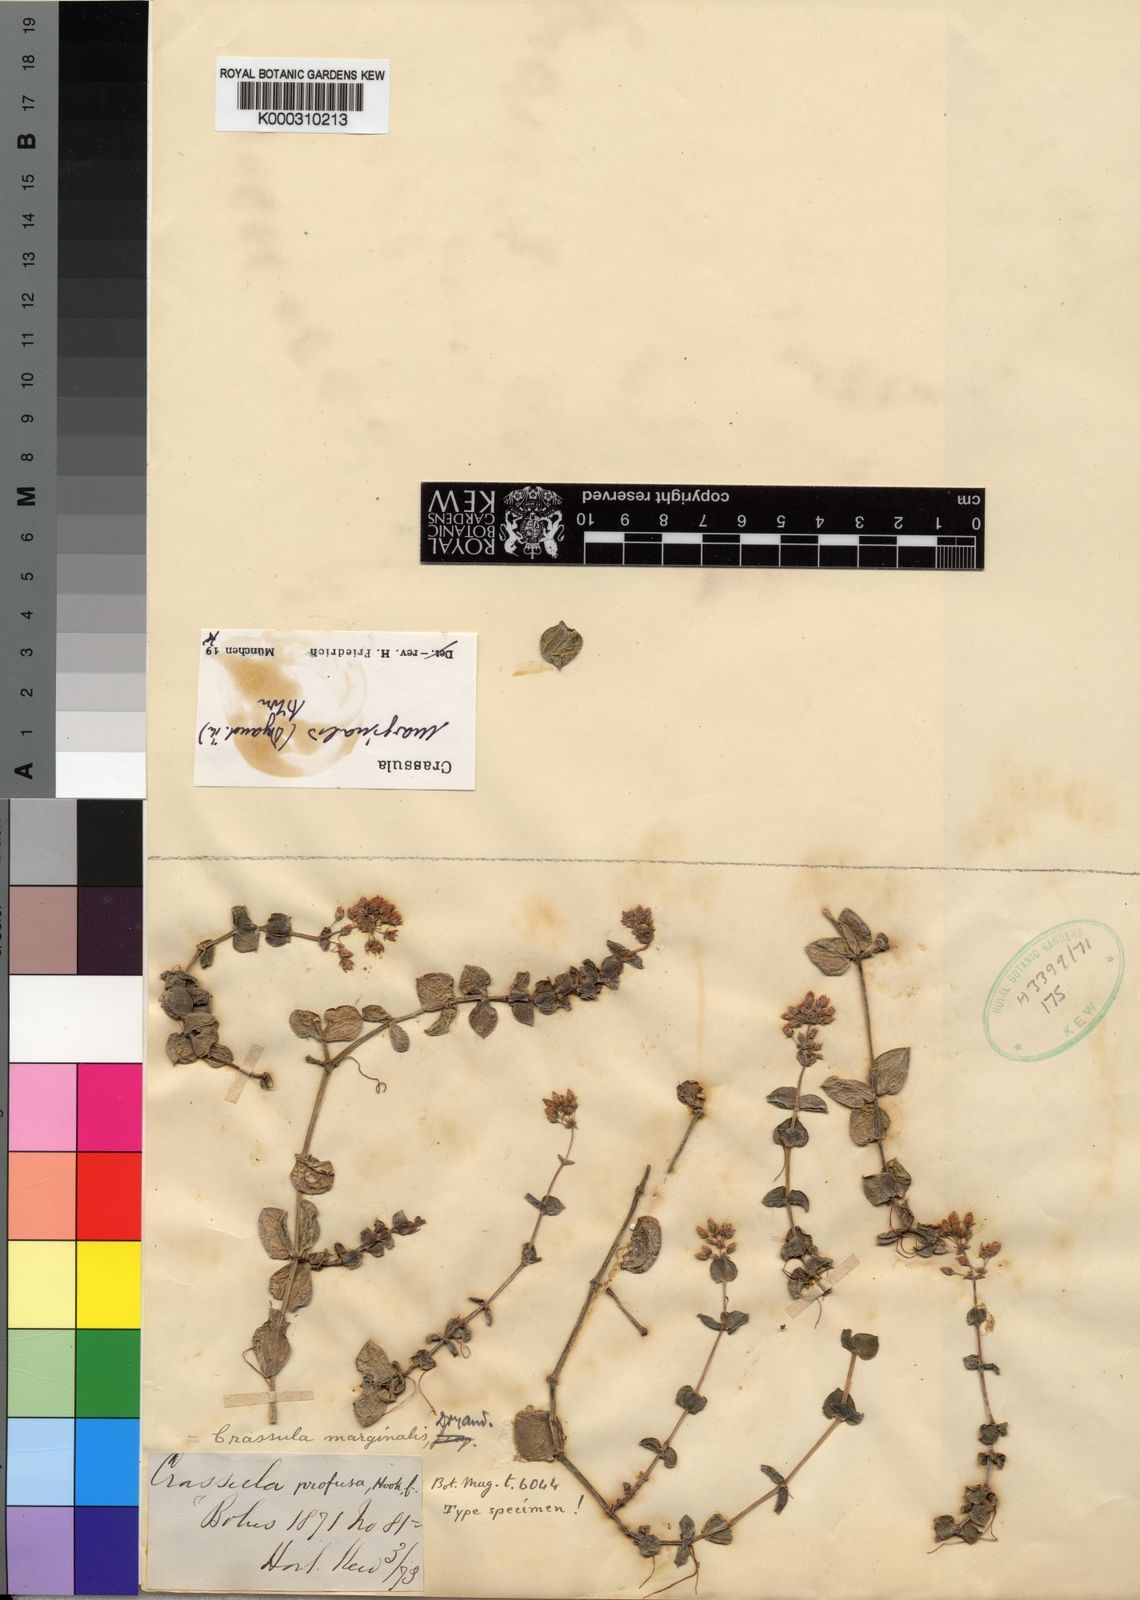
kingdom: Plantae
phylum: Tracheophyta
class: Magnoliopsida
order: Saxifragales
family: Crassulaceae
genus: Crassula
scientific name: Crassula pellucida
